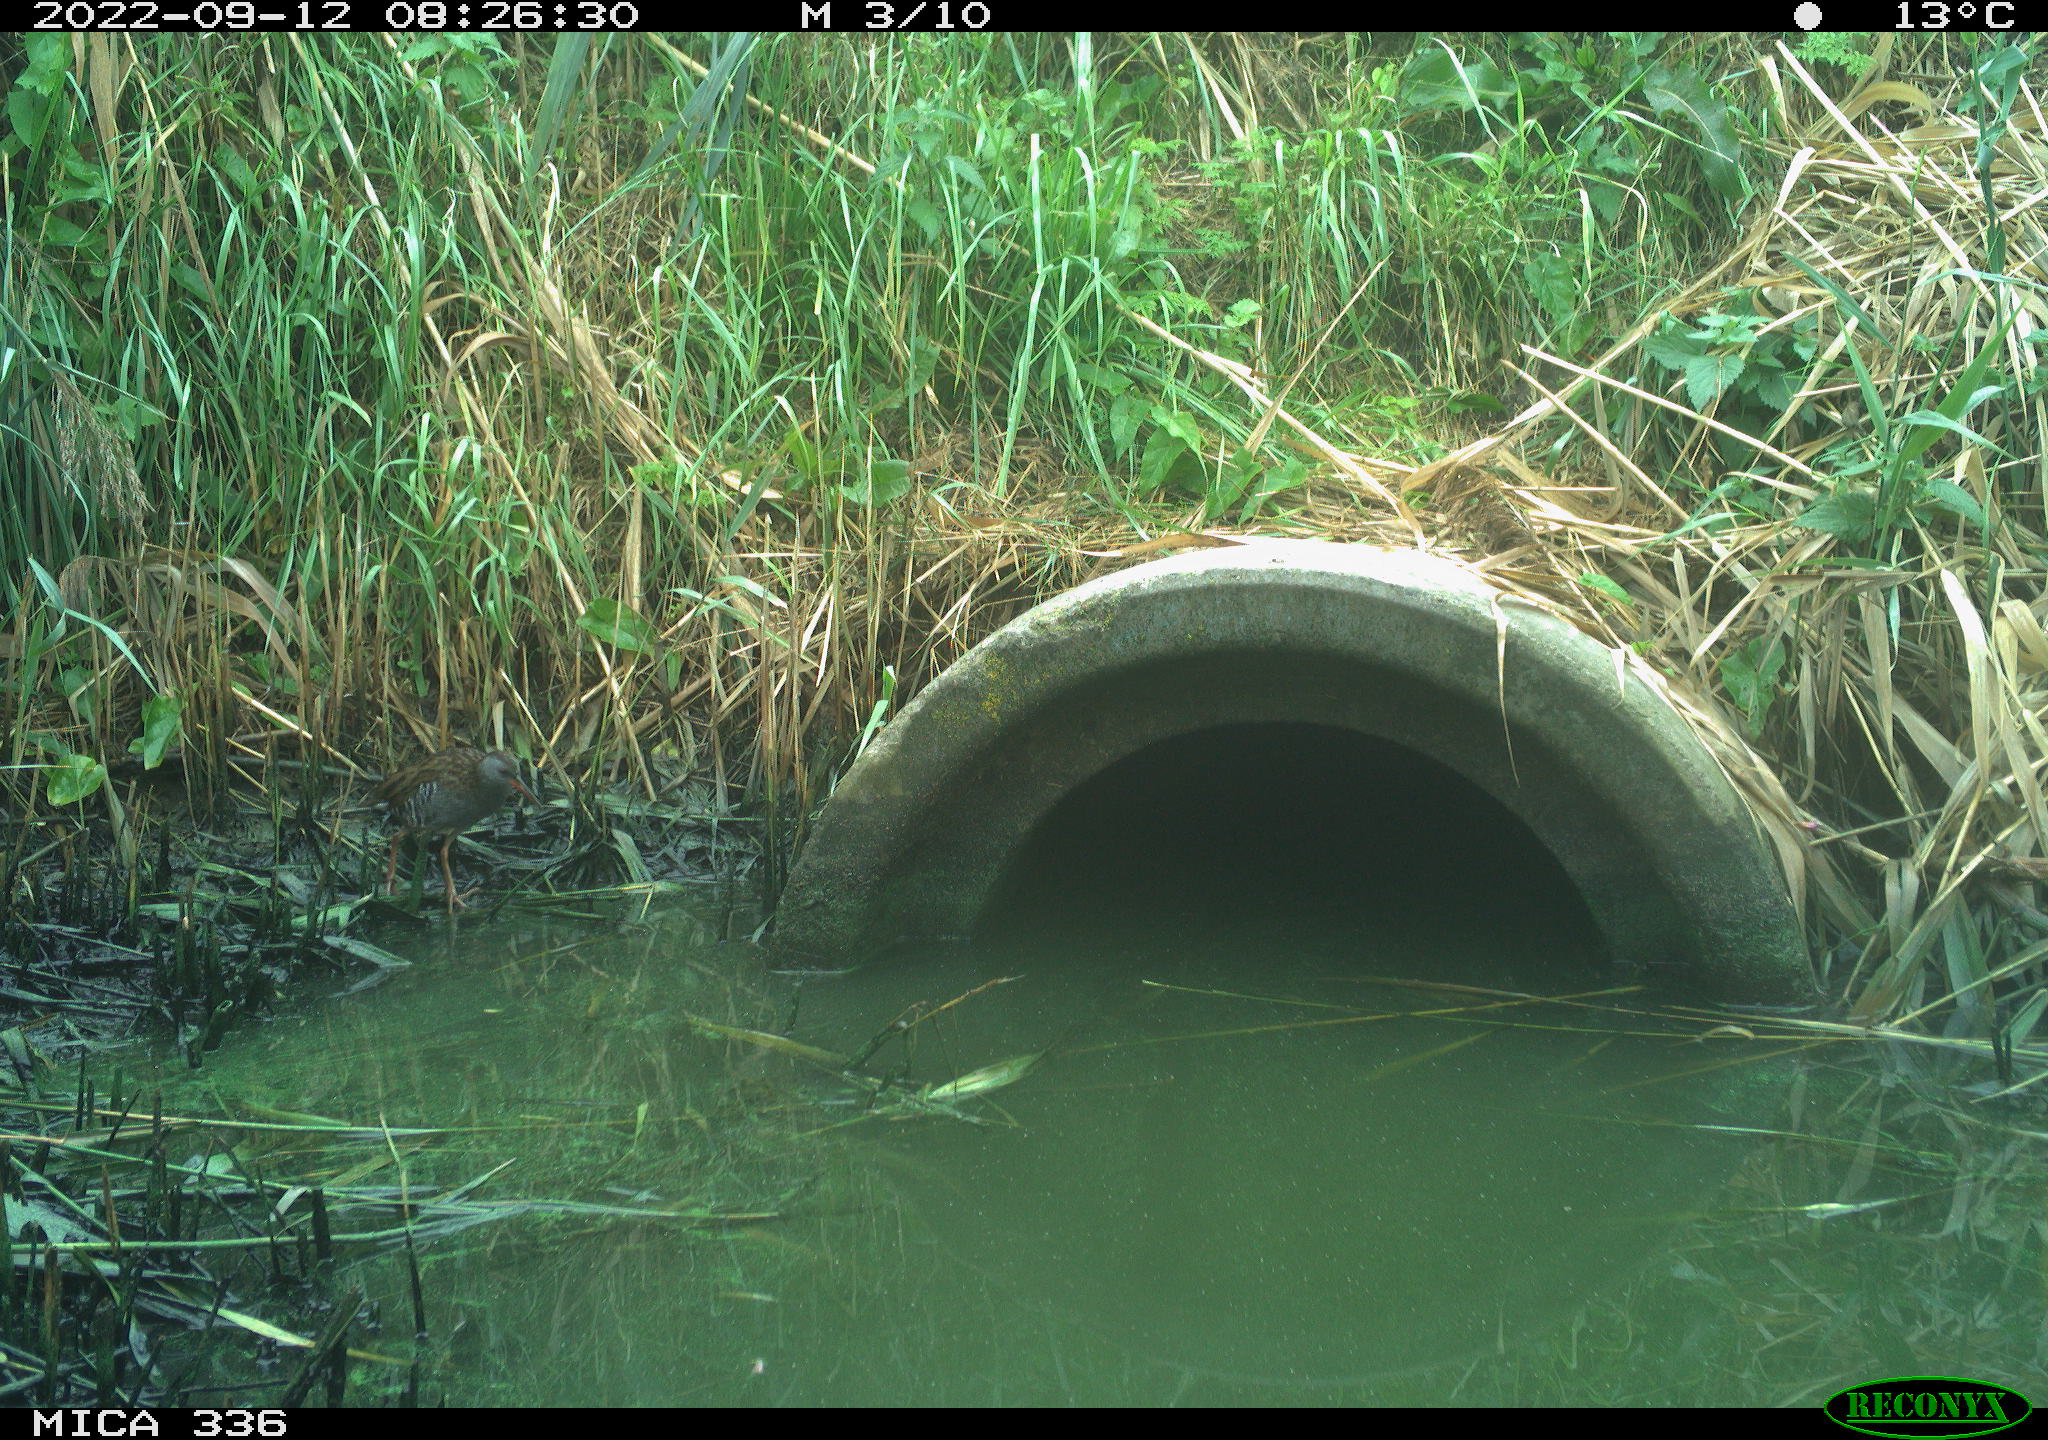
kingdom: Animalia
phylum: Chordata
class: Aves
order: Gruiformes
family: Rallidae
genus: Rallus
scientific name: Rallus aquaticus
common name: Water rail
